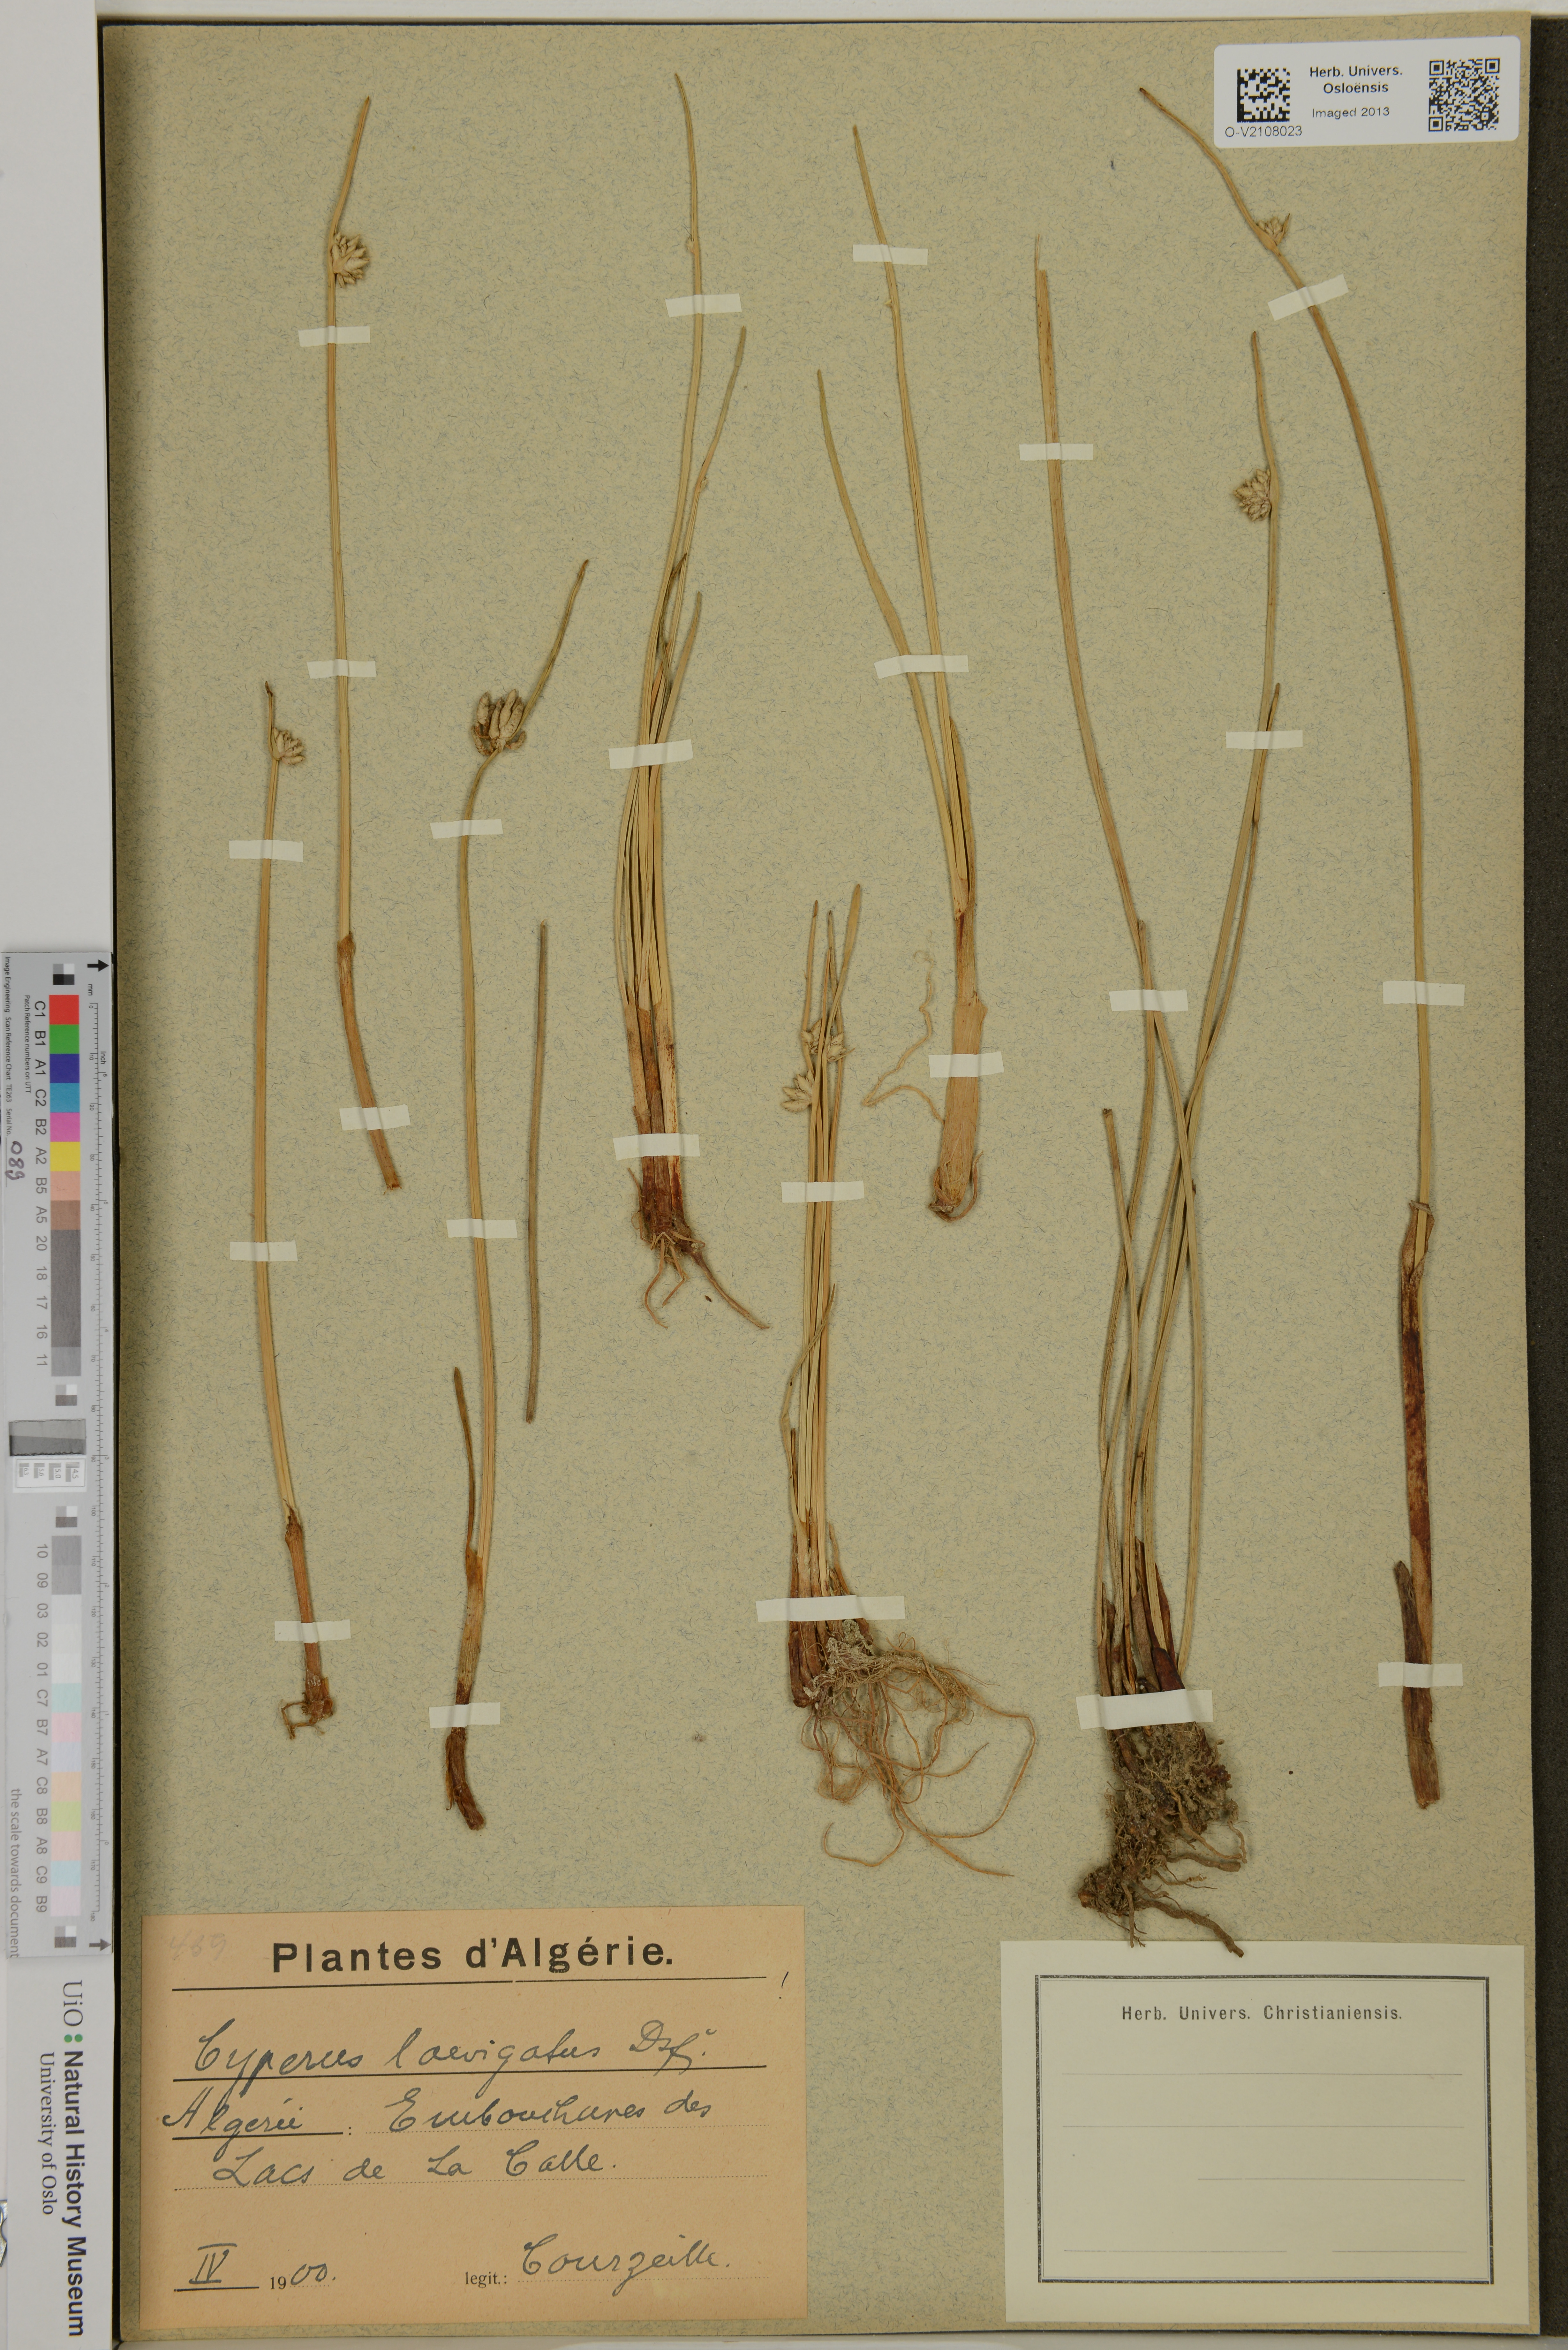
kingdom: Plantae
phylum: Tracheophyta
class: Liliopsida
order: Poales
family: Cyperaceae
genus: Cyperus
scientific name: Cyperus laevigatus
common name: Smooth flat sedge
